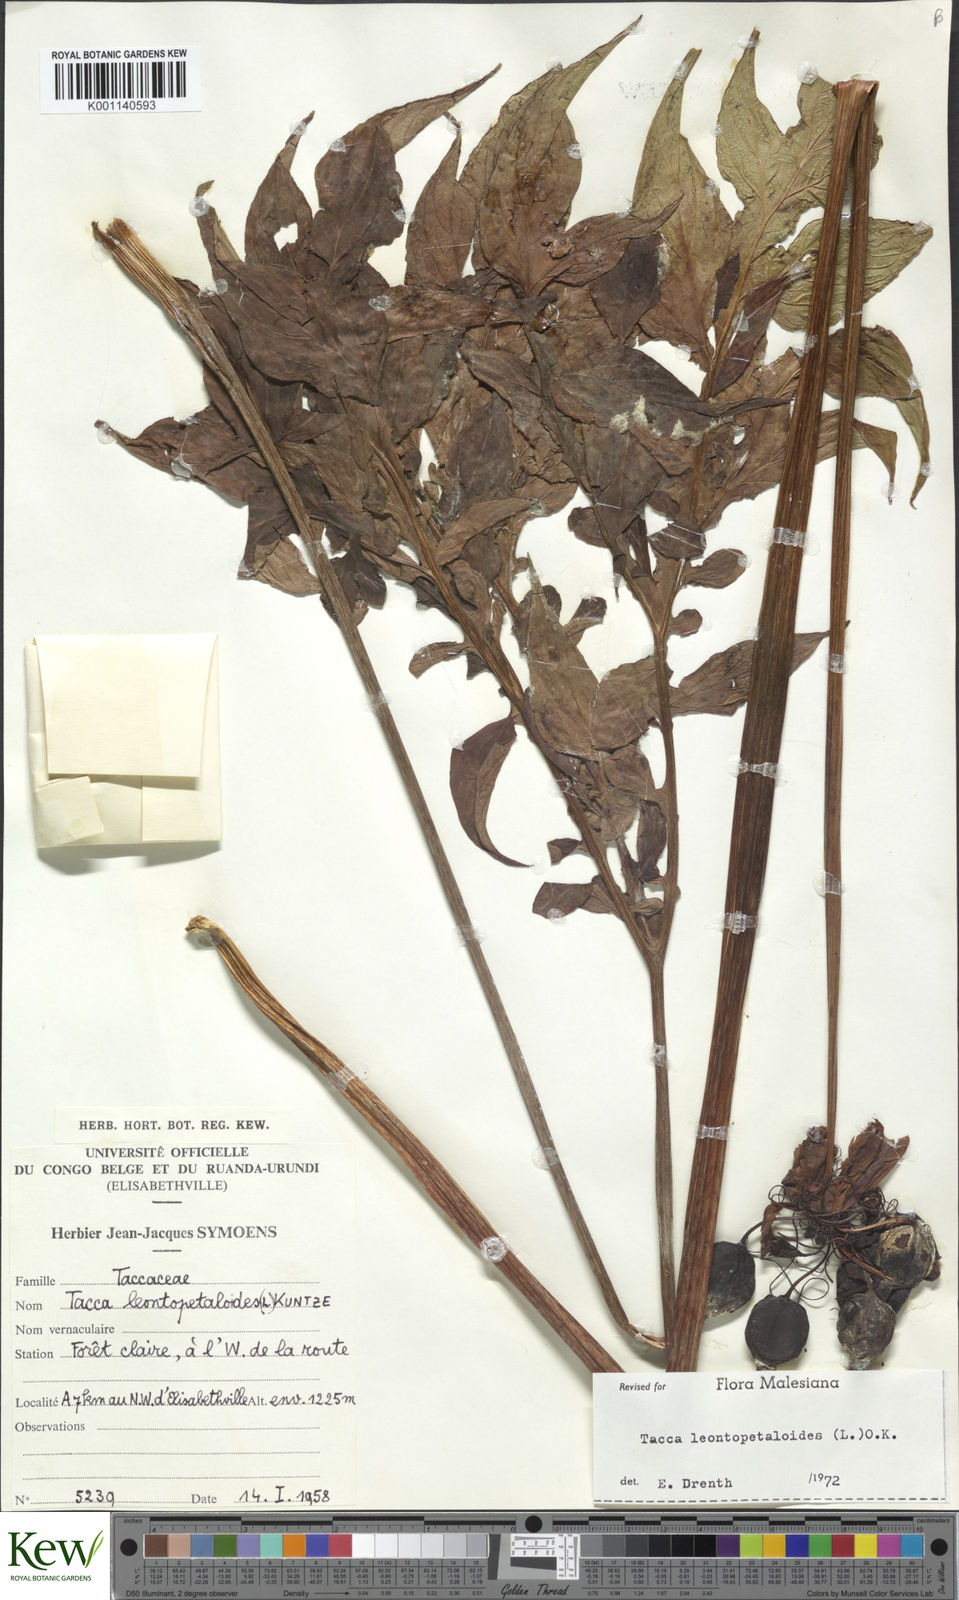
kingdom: Plantae
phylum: Tracheophyta
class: Liliopsida
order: Dioscoreales
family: Dioscoreaceae
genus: Tacca
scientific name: Tacca leontopetaloides
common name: Arrowroot
